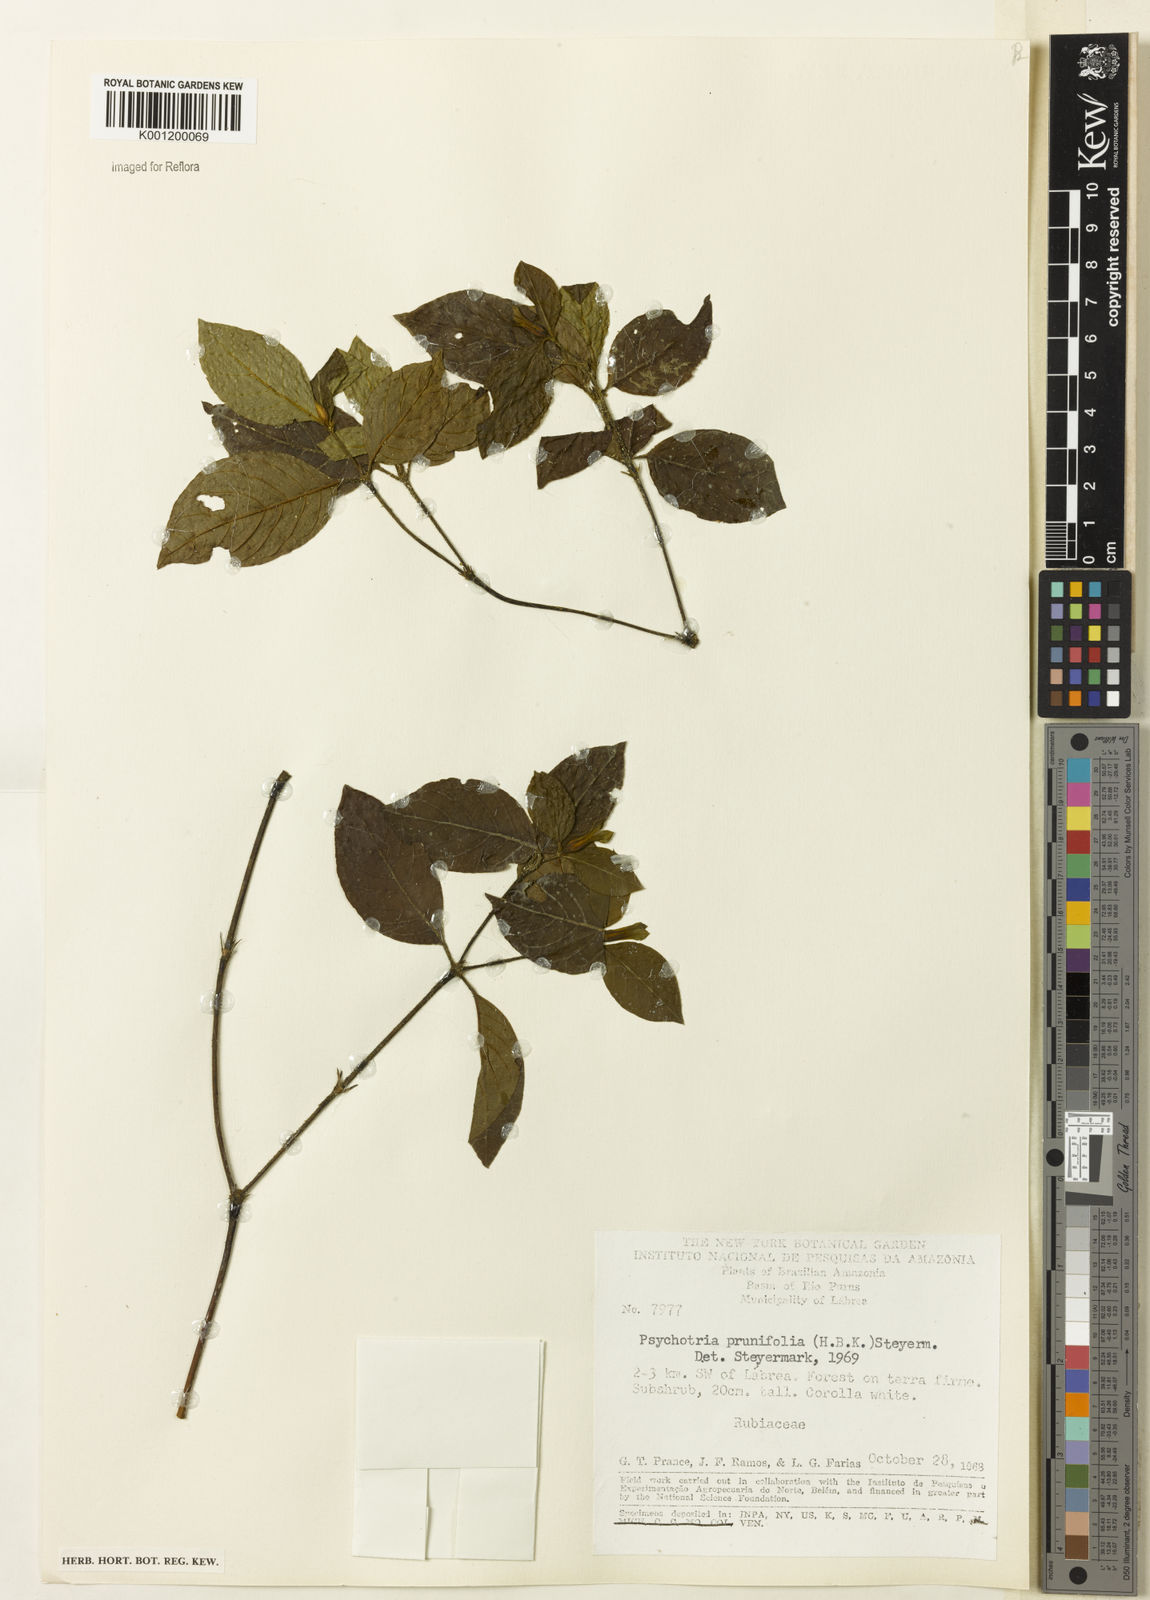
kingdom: Plantae
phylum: Tracheophyta
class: Magnoliopsida
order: Gentianales
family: Rubiaceae
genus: Palicourea
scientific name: Palicourea prunifolia
